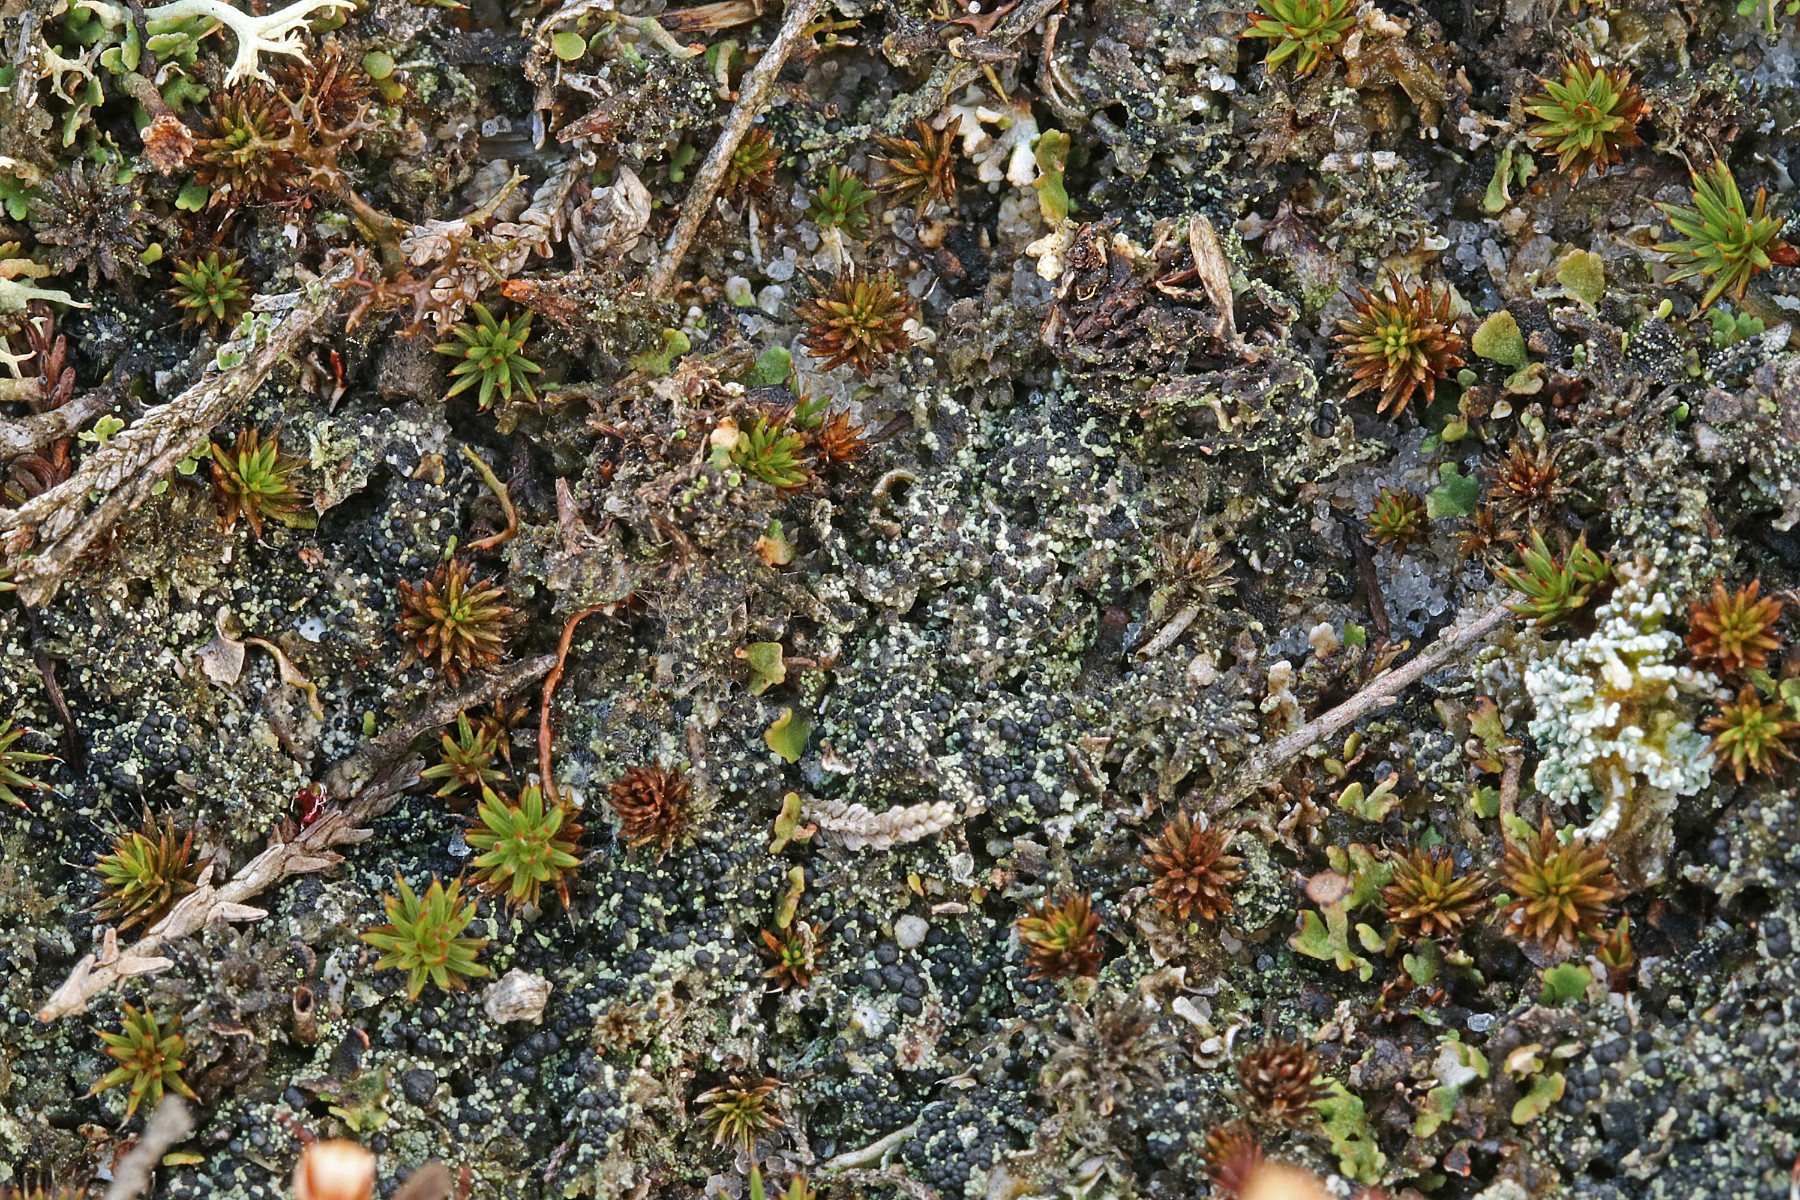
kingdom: Fungi
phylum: Ascomycota
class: Lecanoromycetes
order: Lecanorales
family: Byssolomataceae
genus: Micarea
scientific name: Micarea lignaria
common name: tørve-knaplav
